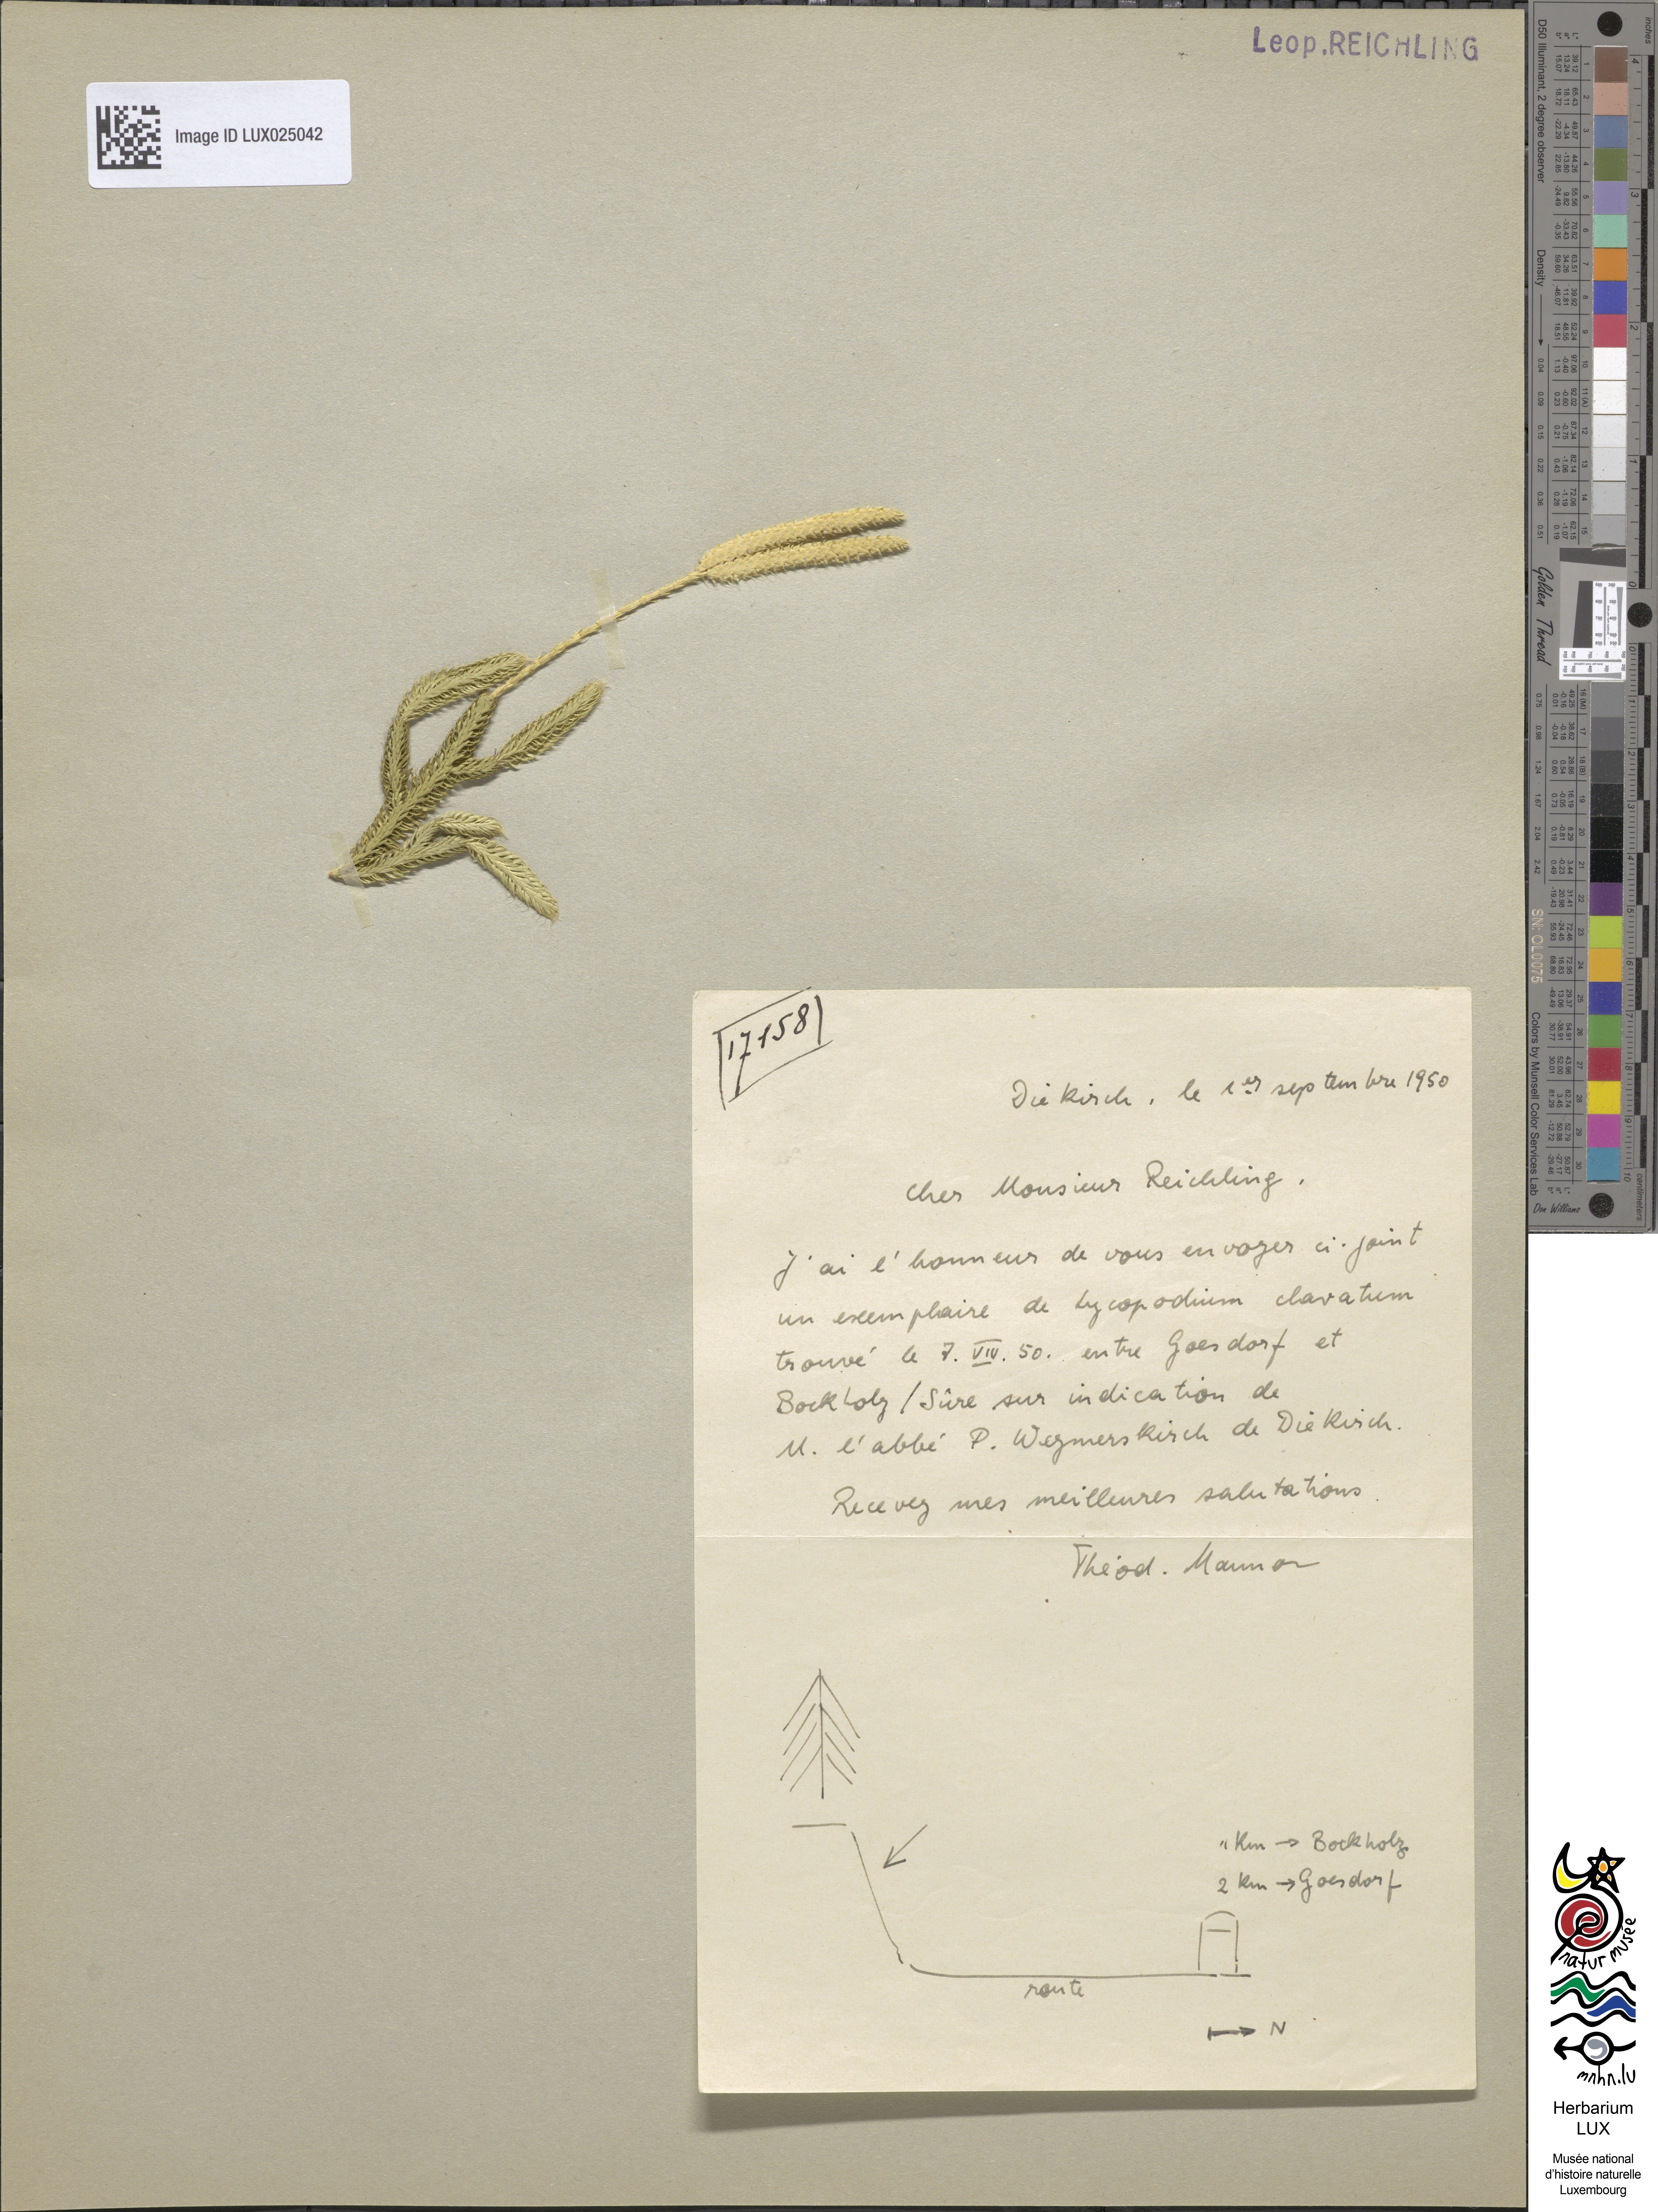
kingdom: Plantae
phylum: Tracheophyta
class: Lycopodiopsida
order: Lycopodiales
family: Lycopodiaceae
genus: Lycopodium
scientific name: Lycopodium clavatum
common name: Stag's-horn clubmoss
